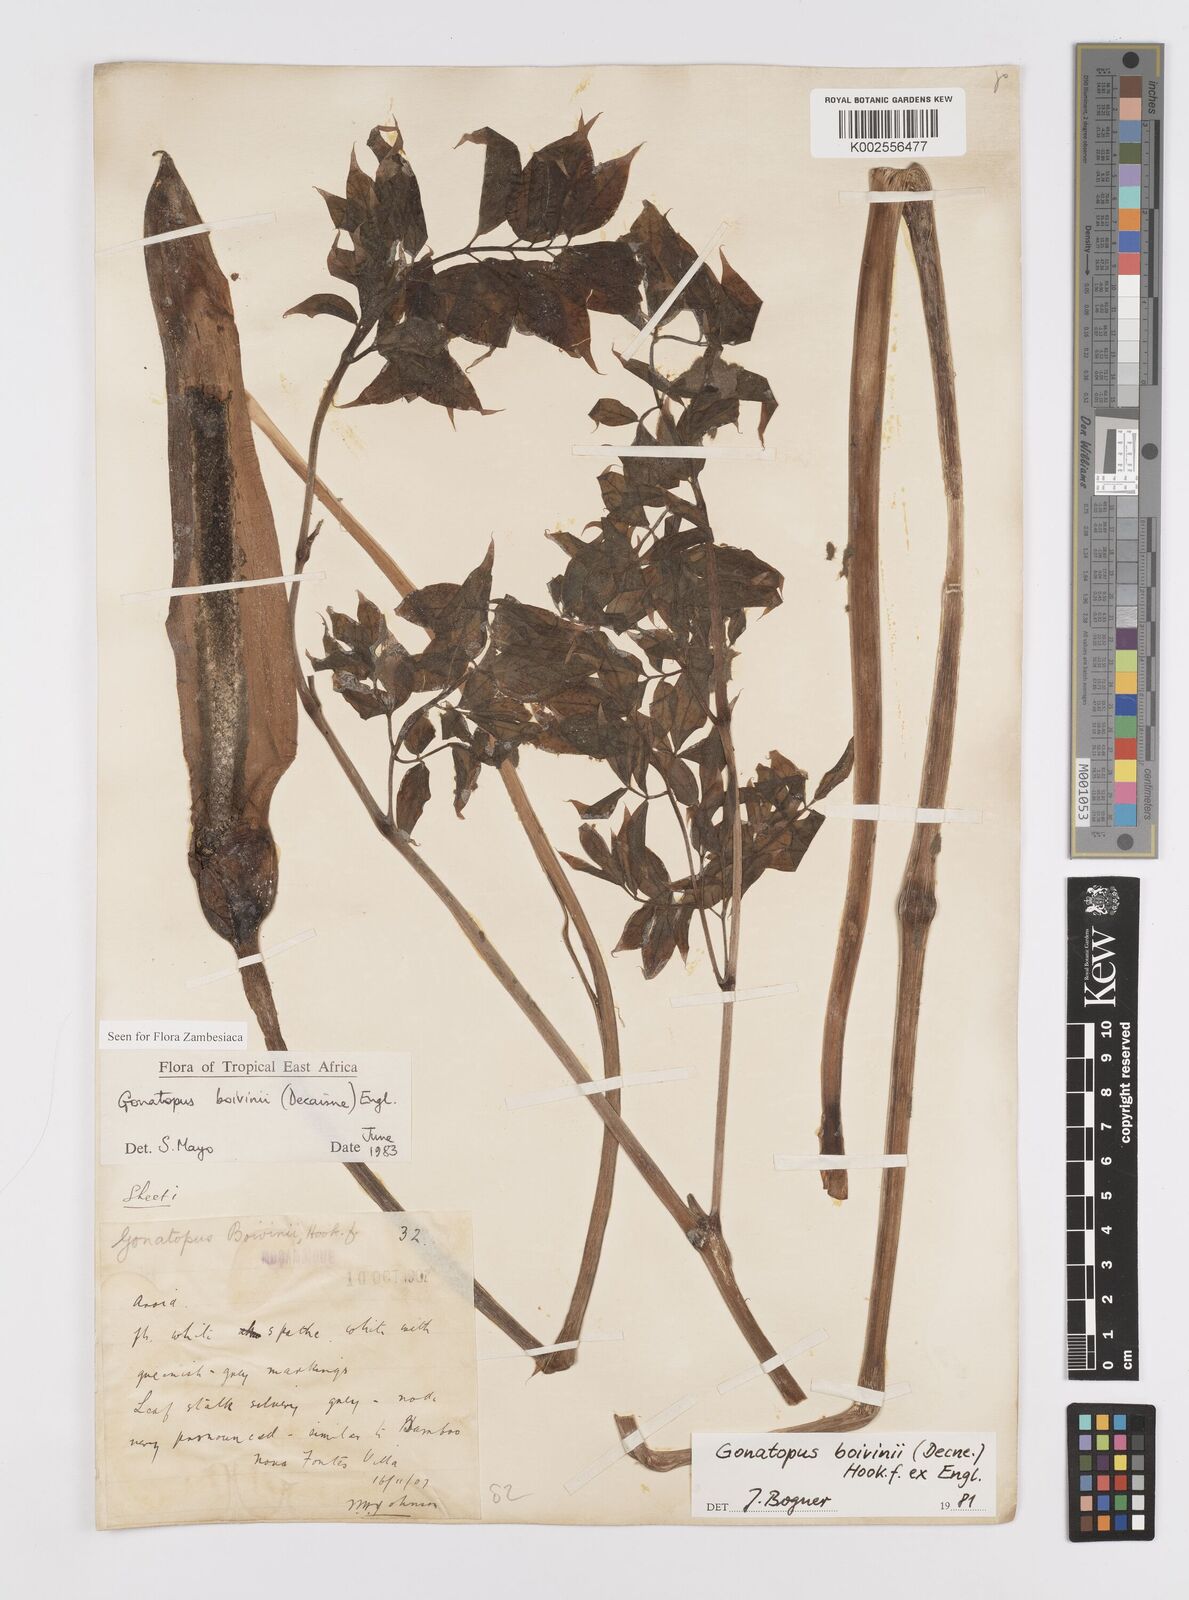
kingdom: Plantae
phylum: Tracheophyta
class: Liliopsida
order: Alismatales
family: Araceae
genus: Gonatopus
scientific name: Gonatopus boivinii
